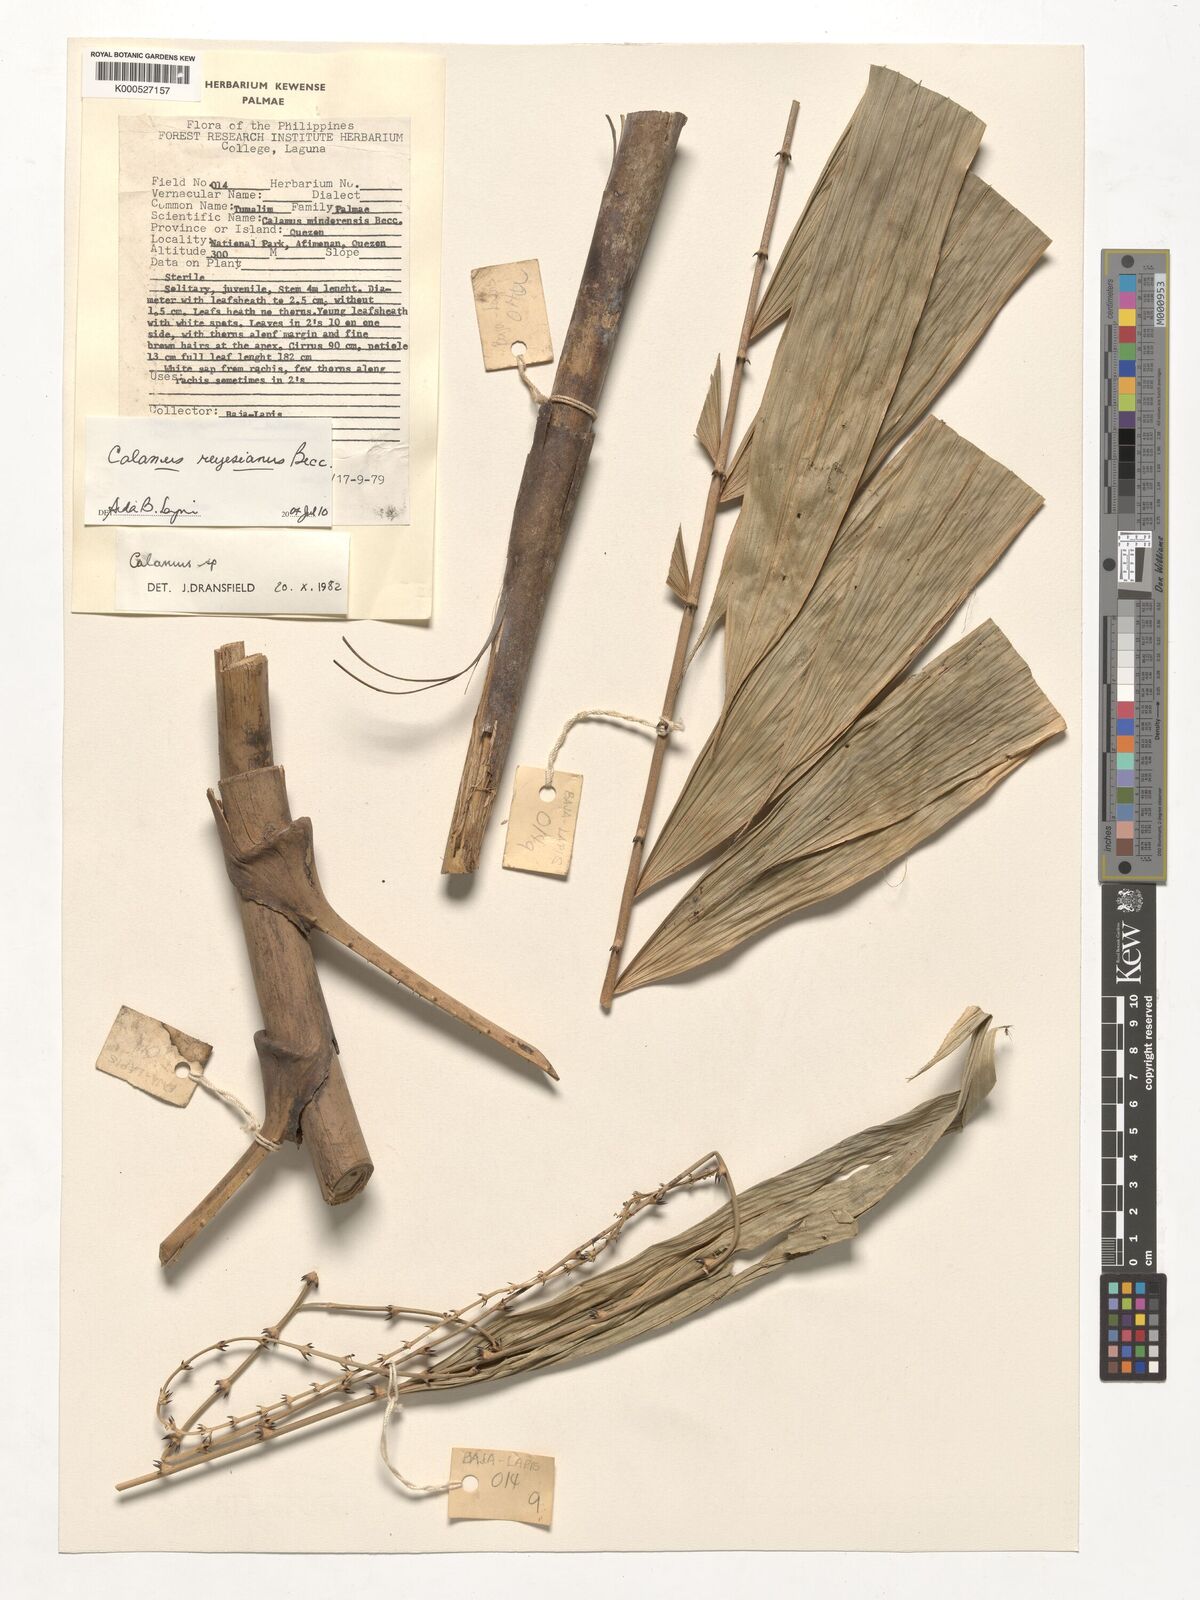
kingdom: Plantae
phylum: Tracheophyta
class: Liliopsida
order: Arecales
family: Arecaceae
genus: Calamus
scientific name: Calamus moseleyanus
